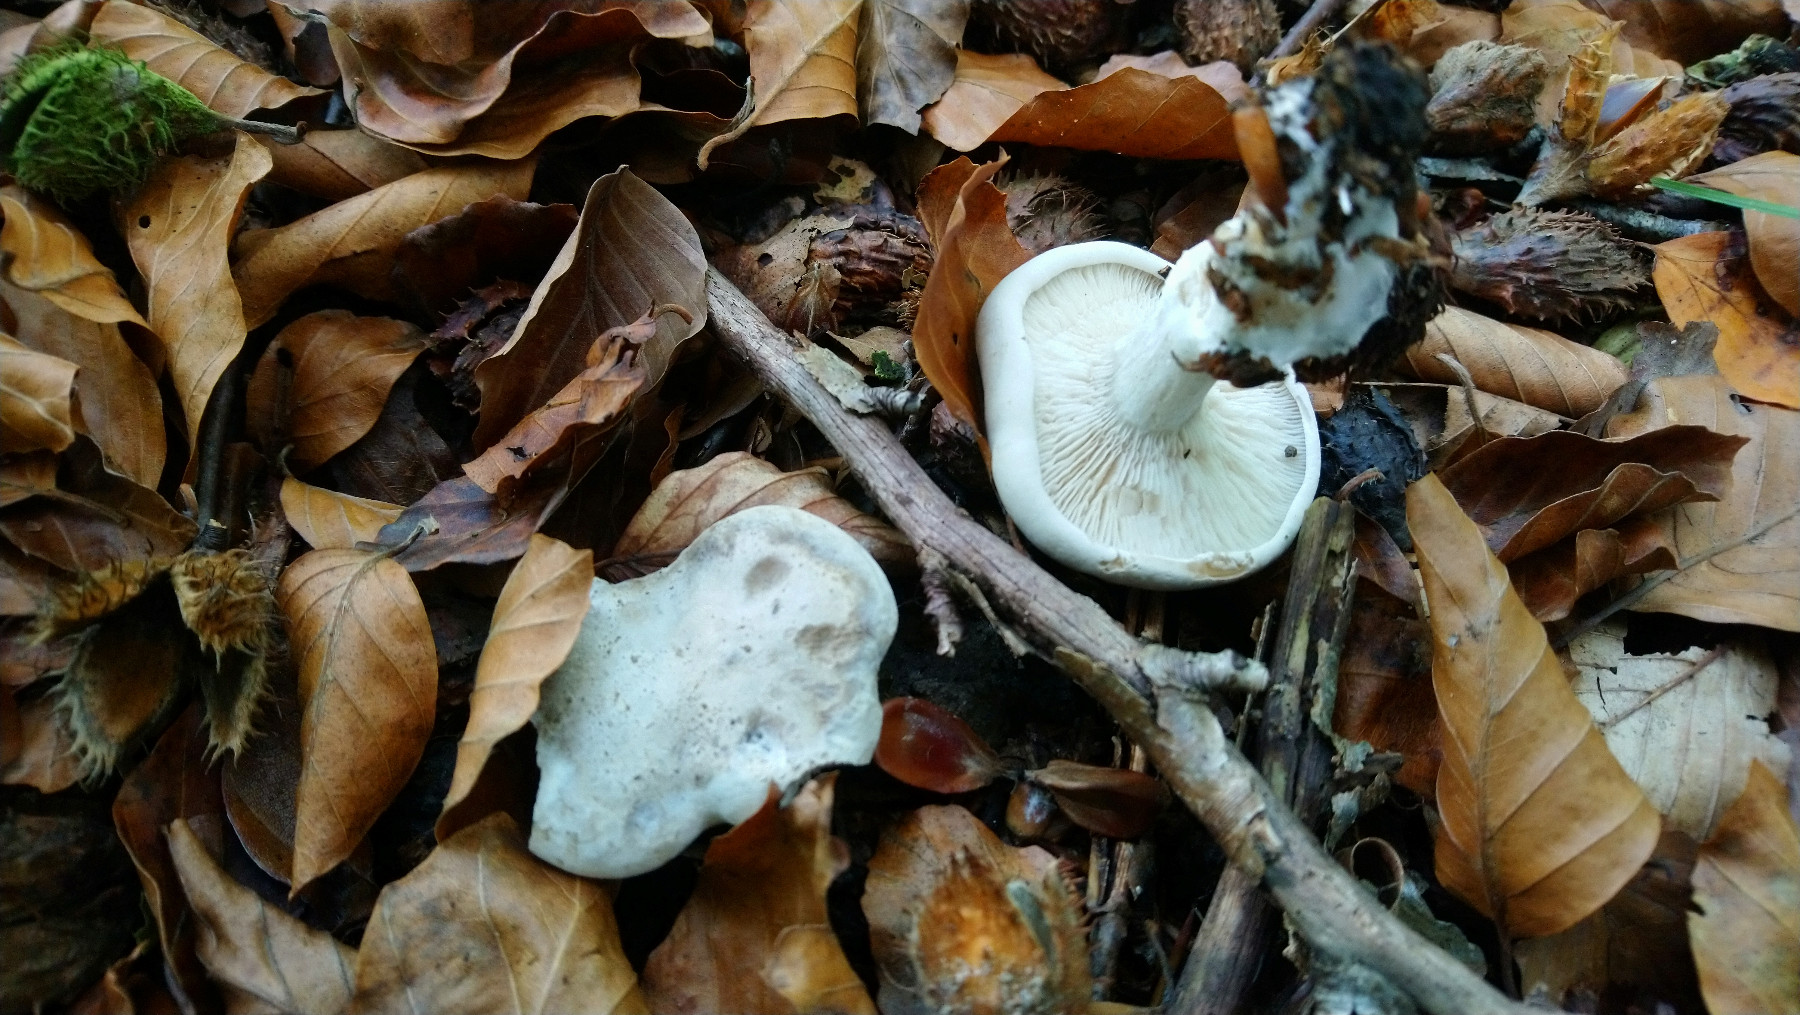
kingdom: Fungi
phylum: Basidiomycota
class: Agaricomycetes
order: Agaricales
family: Entolomataceae
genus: Clitopilus
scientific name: Clitopilus prunulus
